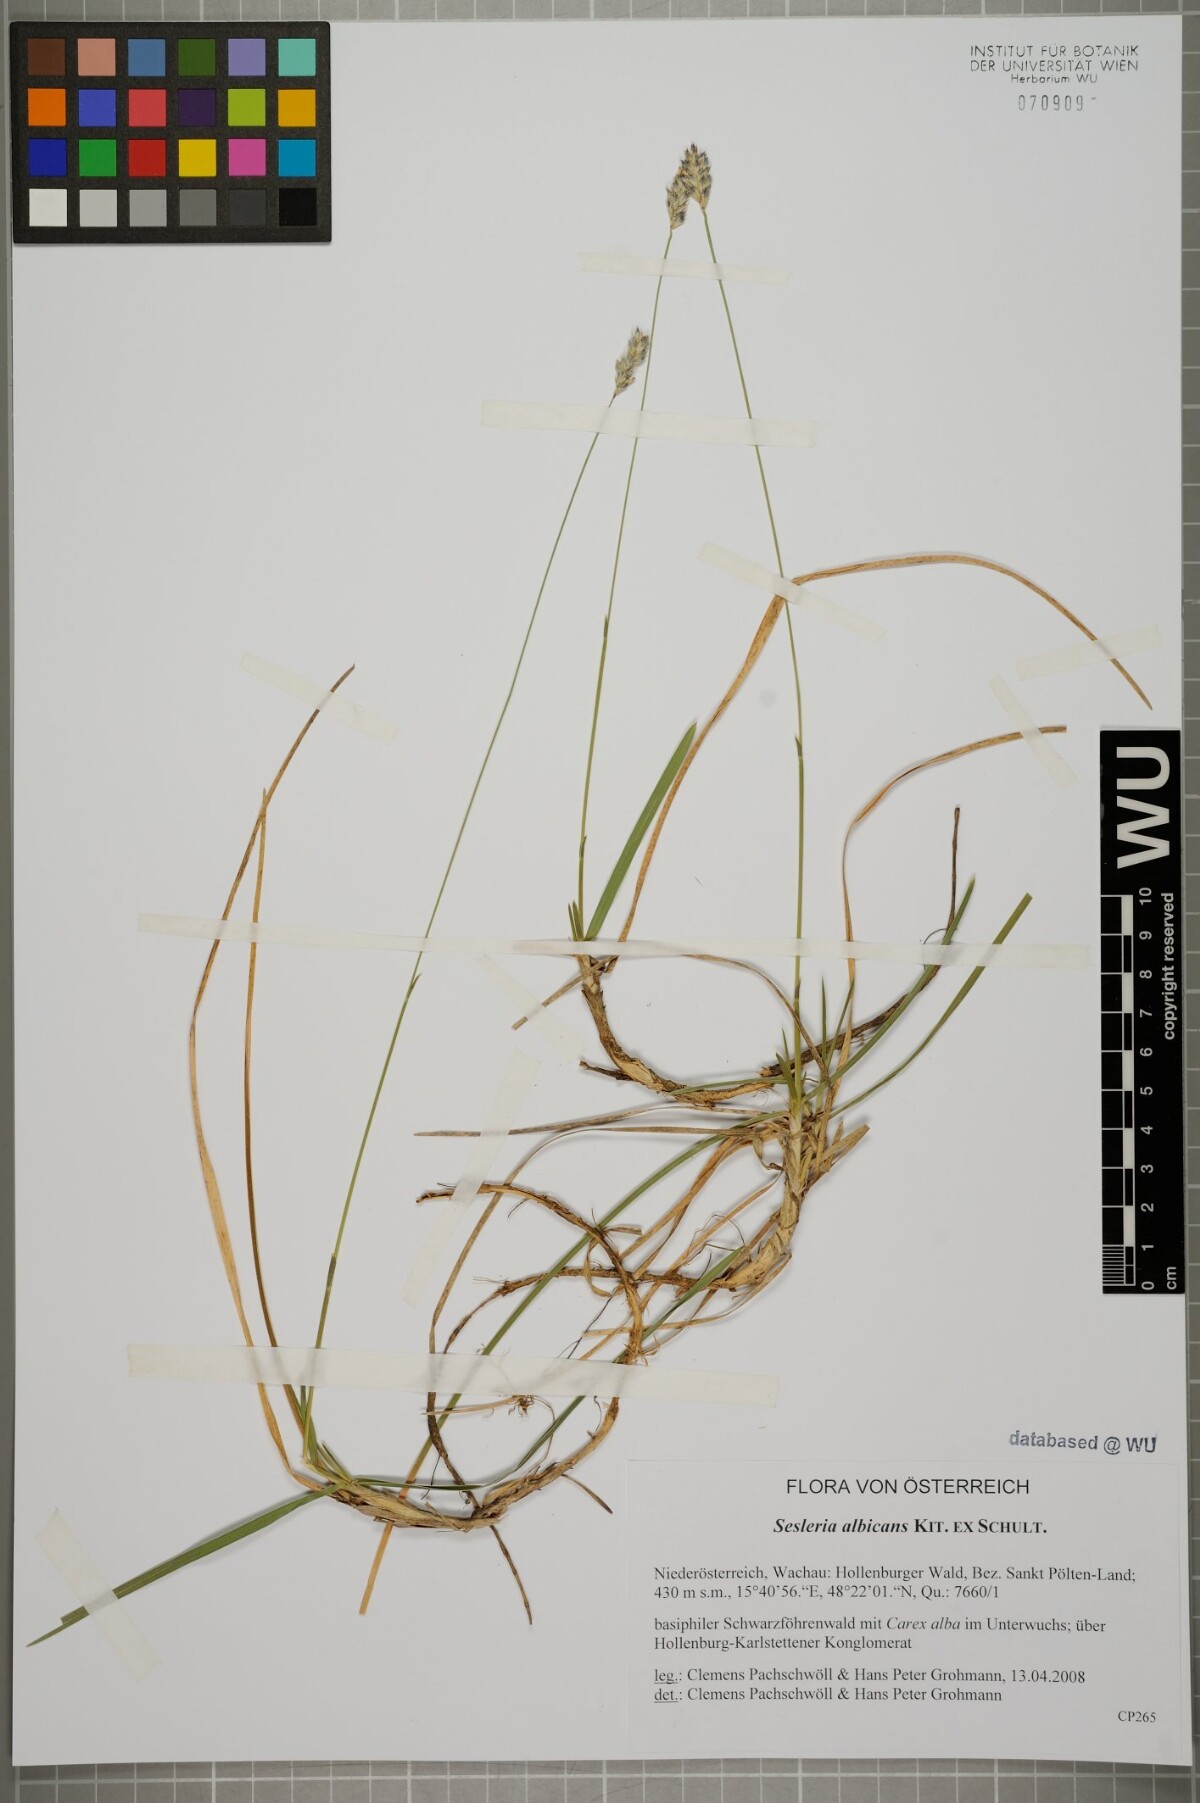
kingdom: Plantae
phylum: Tracheophyta
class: Liliopsida
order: Poales
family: Poaceae
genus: Sesleria
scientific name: Sesleria albicans
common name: Blue moor-grass
